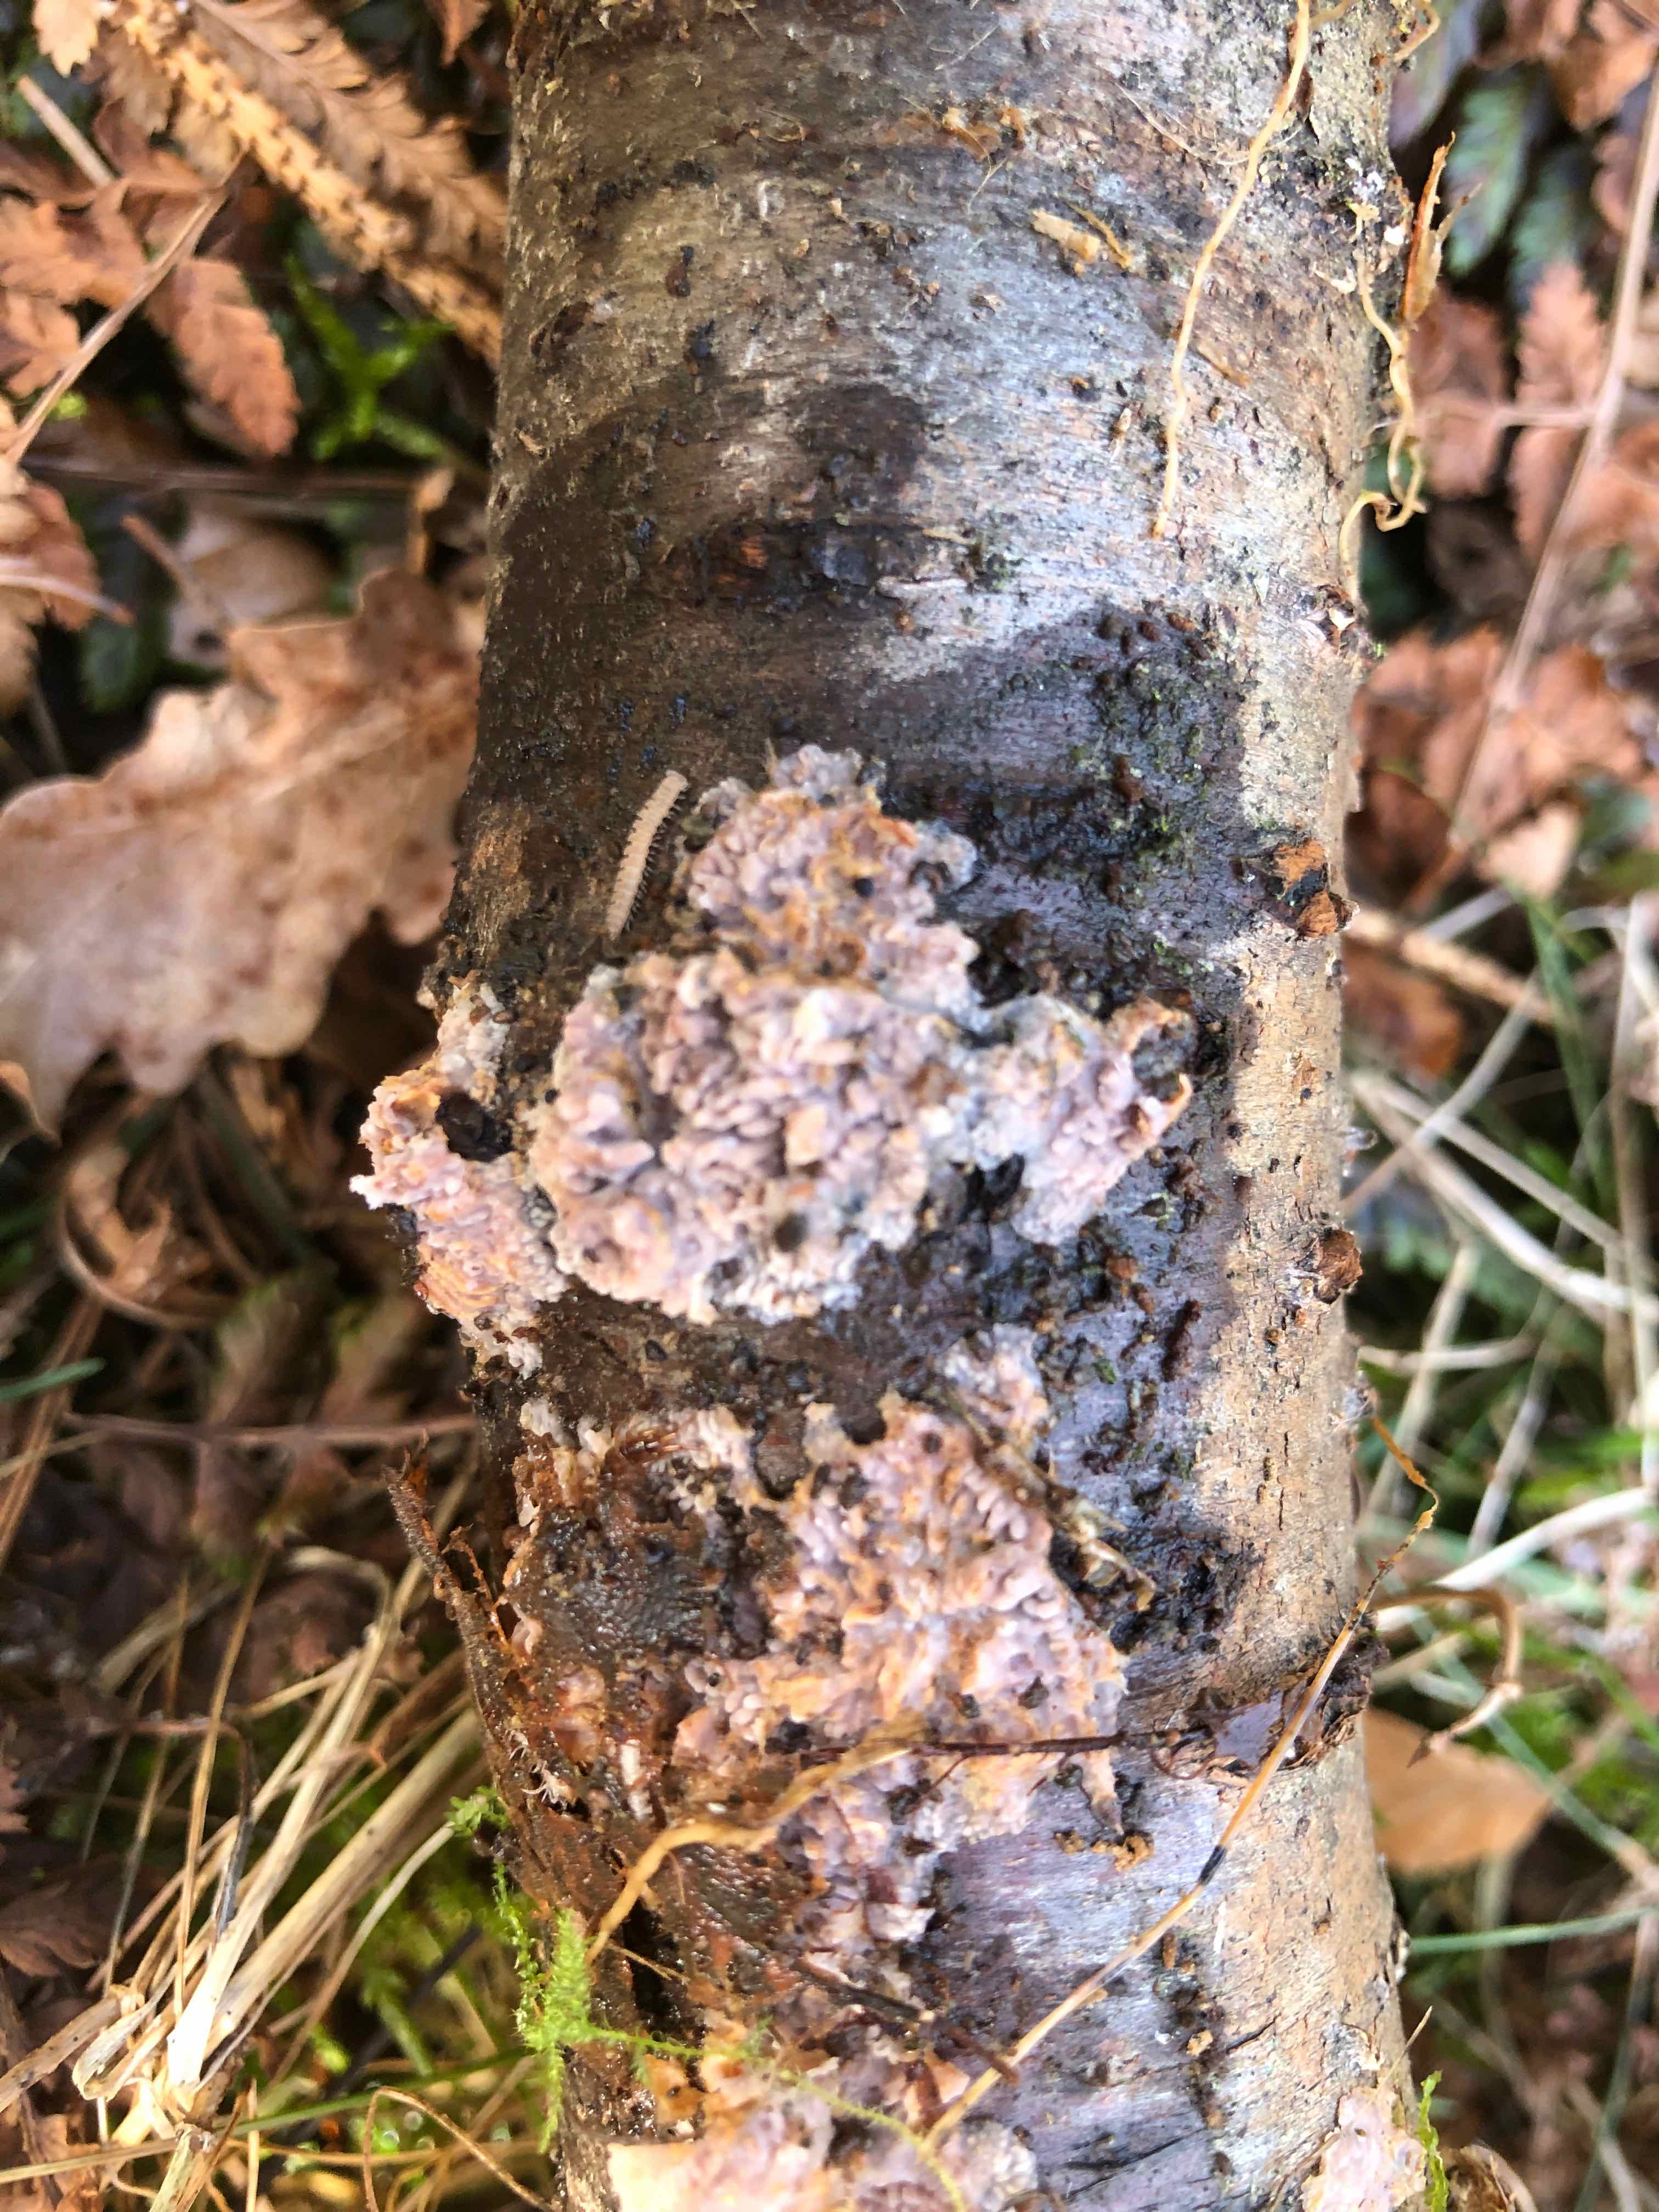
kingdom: Fungi
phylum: Basidiomycota
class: Agaricomycetes
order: Polyporales
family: Meruliaceae
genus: Phlebia
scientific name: Phlebia radiata
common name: stråle-åresvamp
